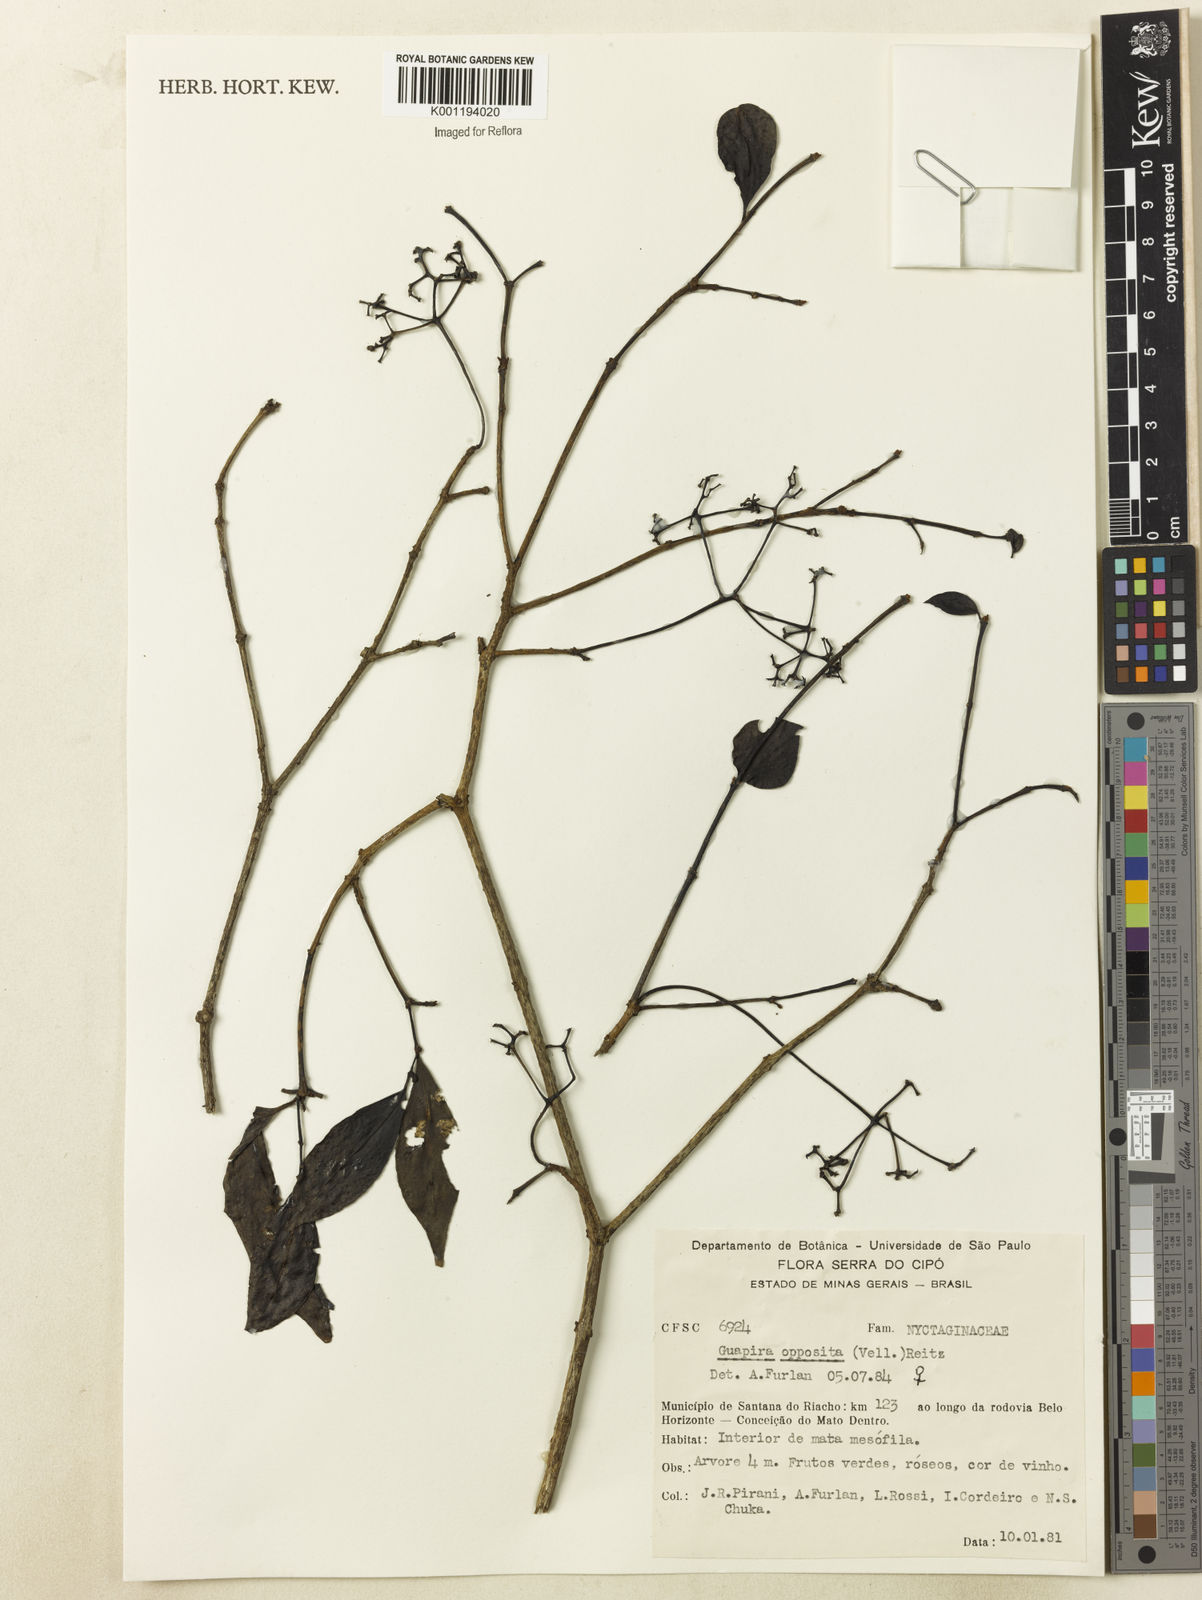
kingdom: Plantae
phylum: Tracheophyta
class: Magnoliopsida
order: Caryophyllales
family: Nyctaginaceae
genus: Guapira
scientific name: Guapira opposita
